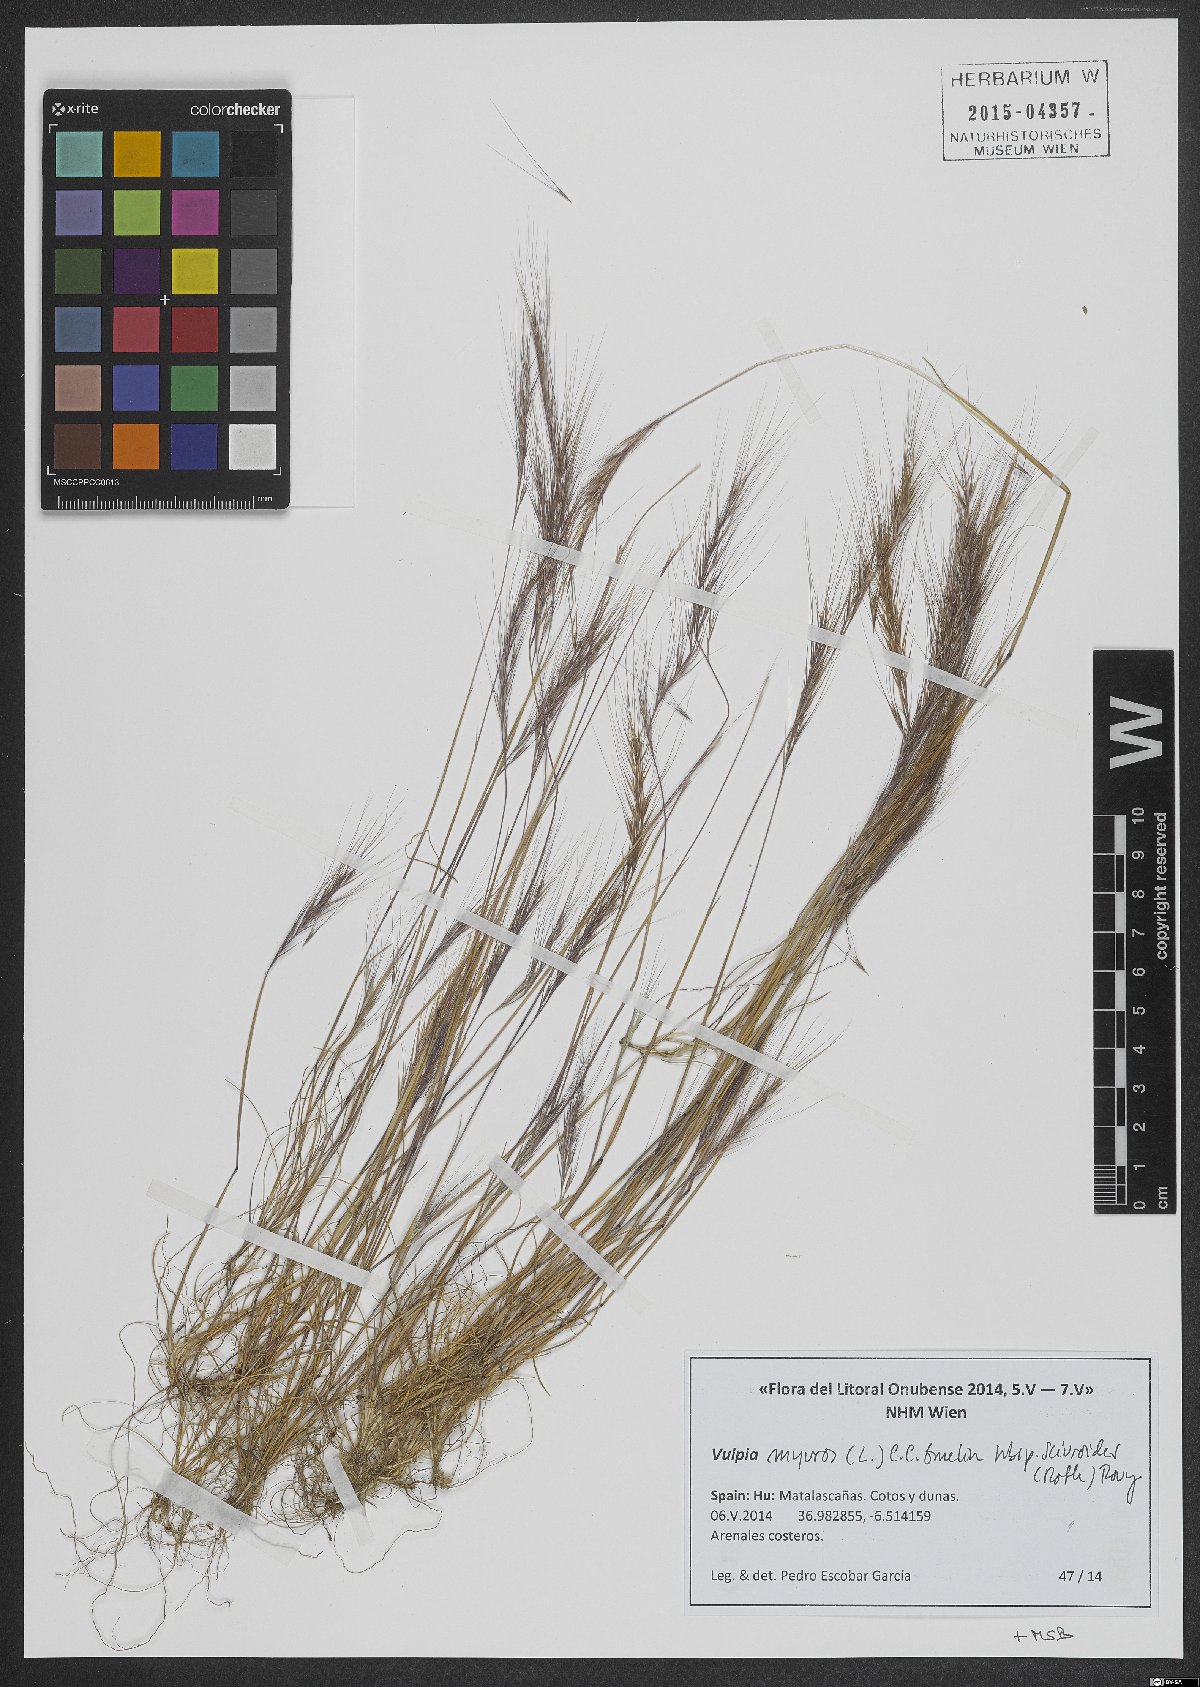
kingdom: Plantae
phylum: Tracheophyta
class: Liliopsida
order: Poales
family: Poaceae
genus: Festuca
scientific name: Festuca bromoides
